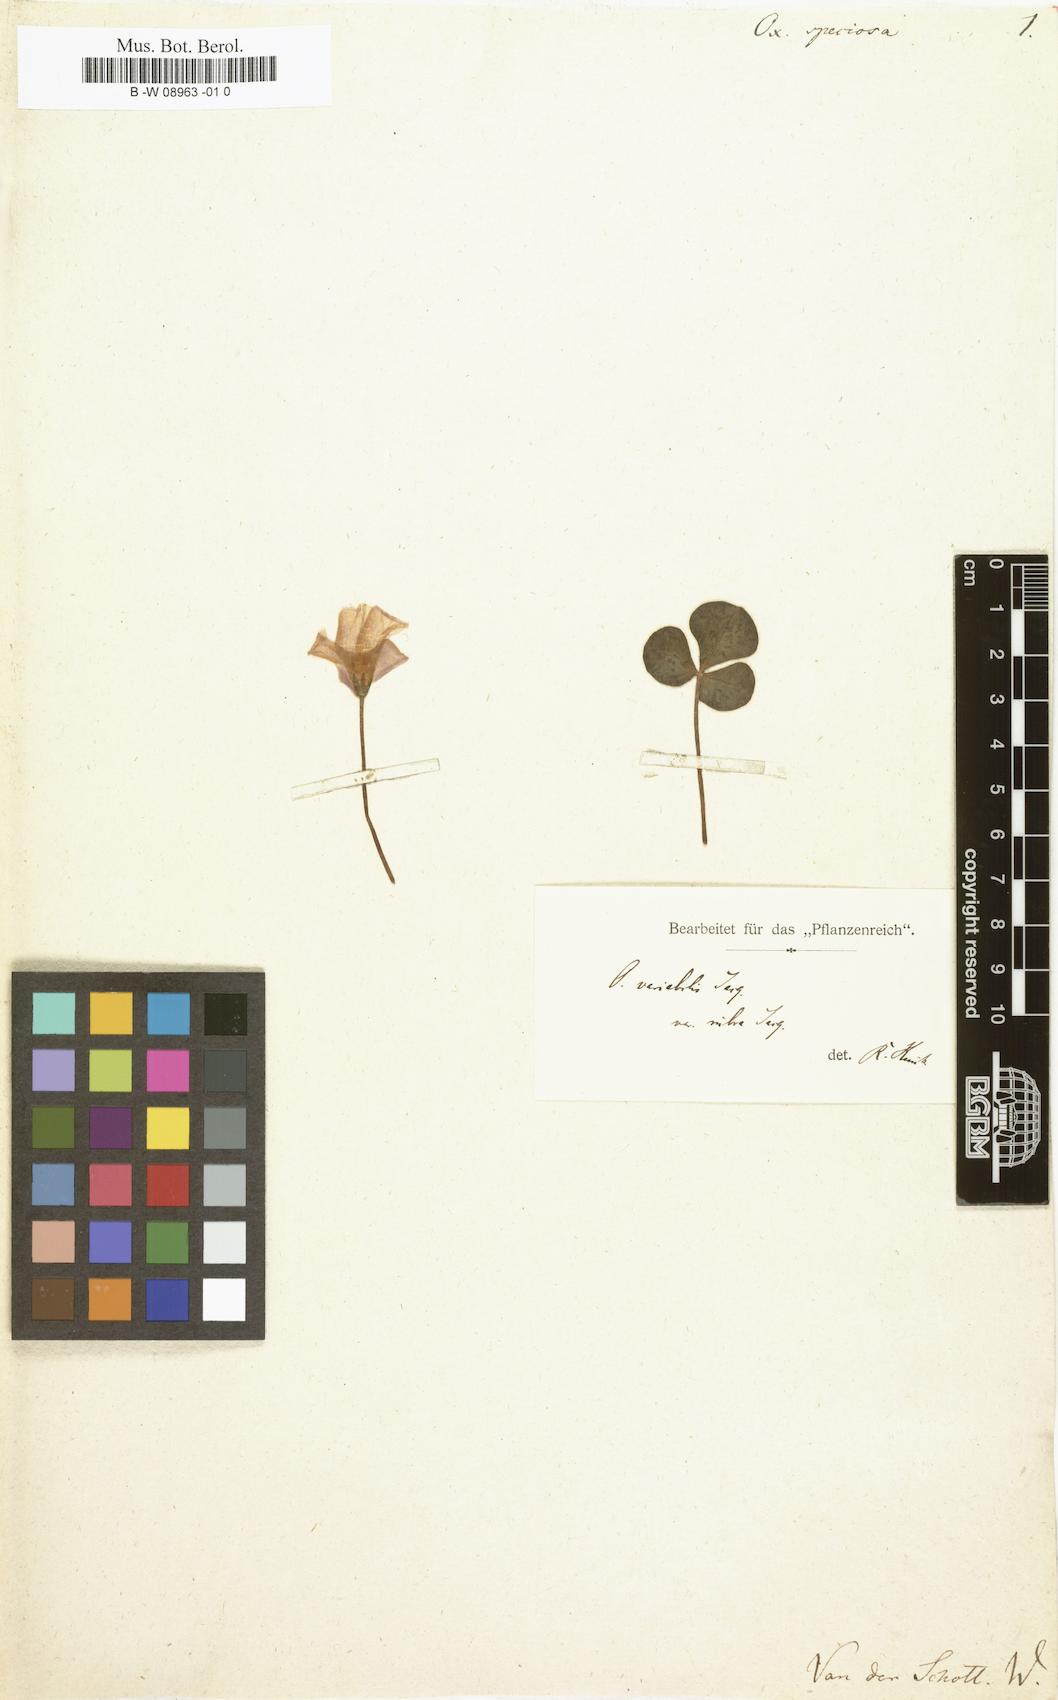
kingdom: Plantae
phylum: Tracheophyta
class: Magnoliopsida
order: Oxalidales
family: Oxalidaceae
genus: Oxalis
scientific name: Oxalis purpurea
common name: Purple woodsorrel
